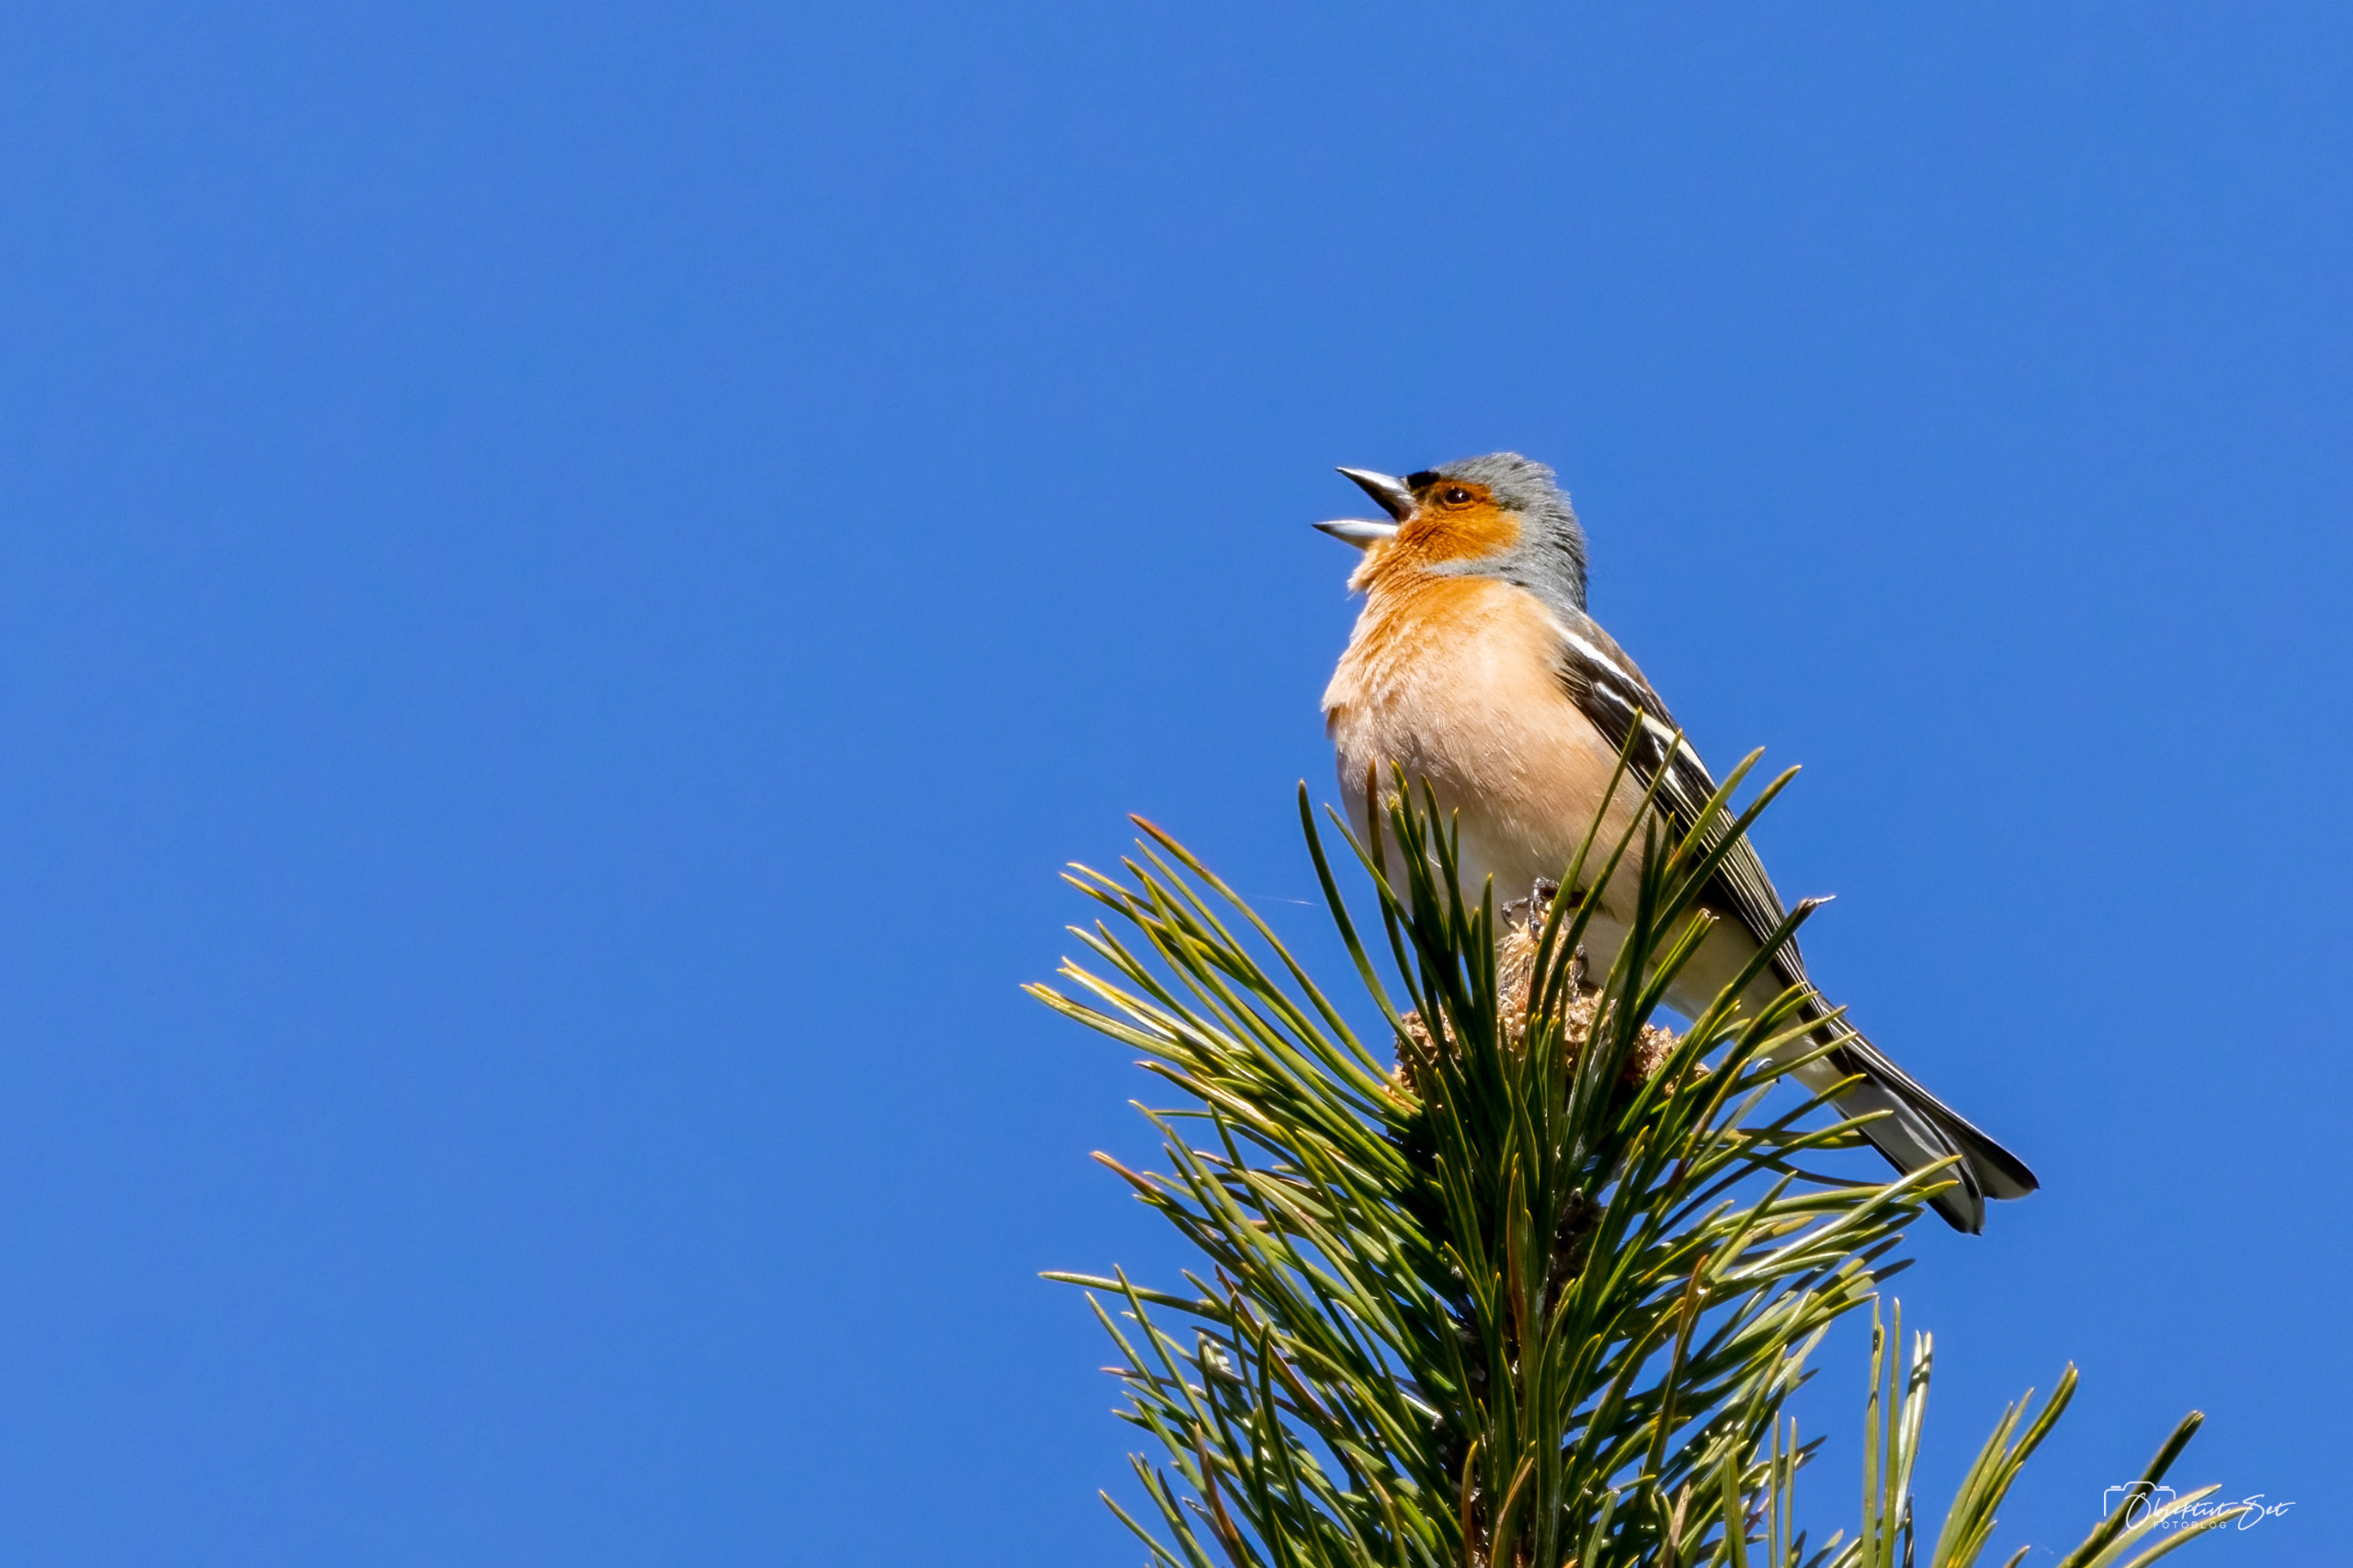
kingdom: Animalia
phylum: Chordata
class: Aves
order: Passeriformes
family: Fringillidae
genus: Fringilla
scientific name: Fringilla coelebs
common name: Bogfinke
